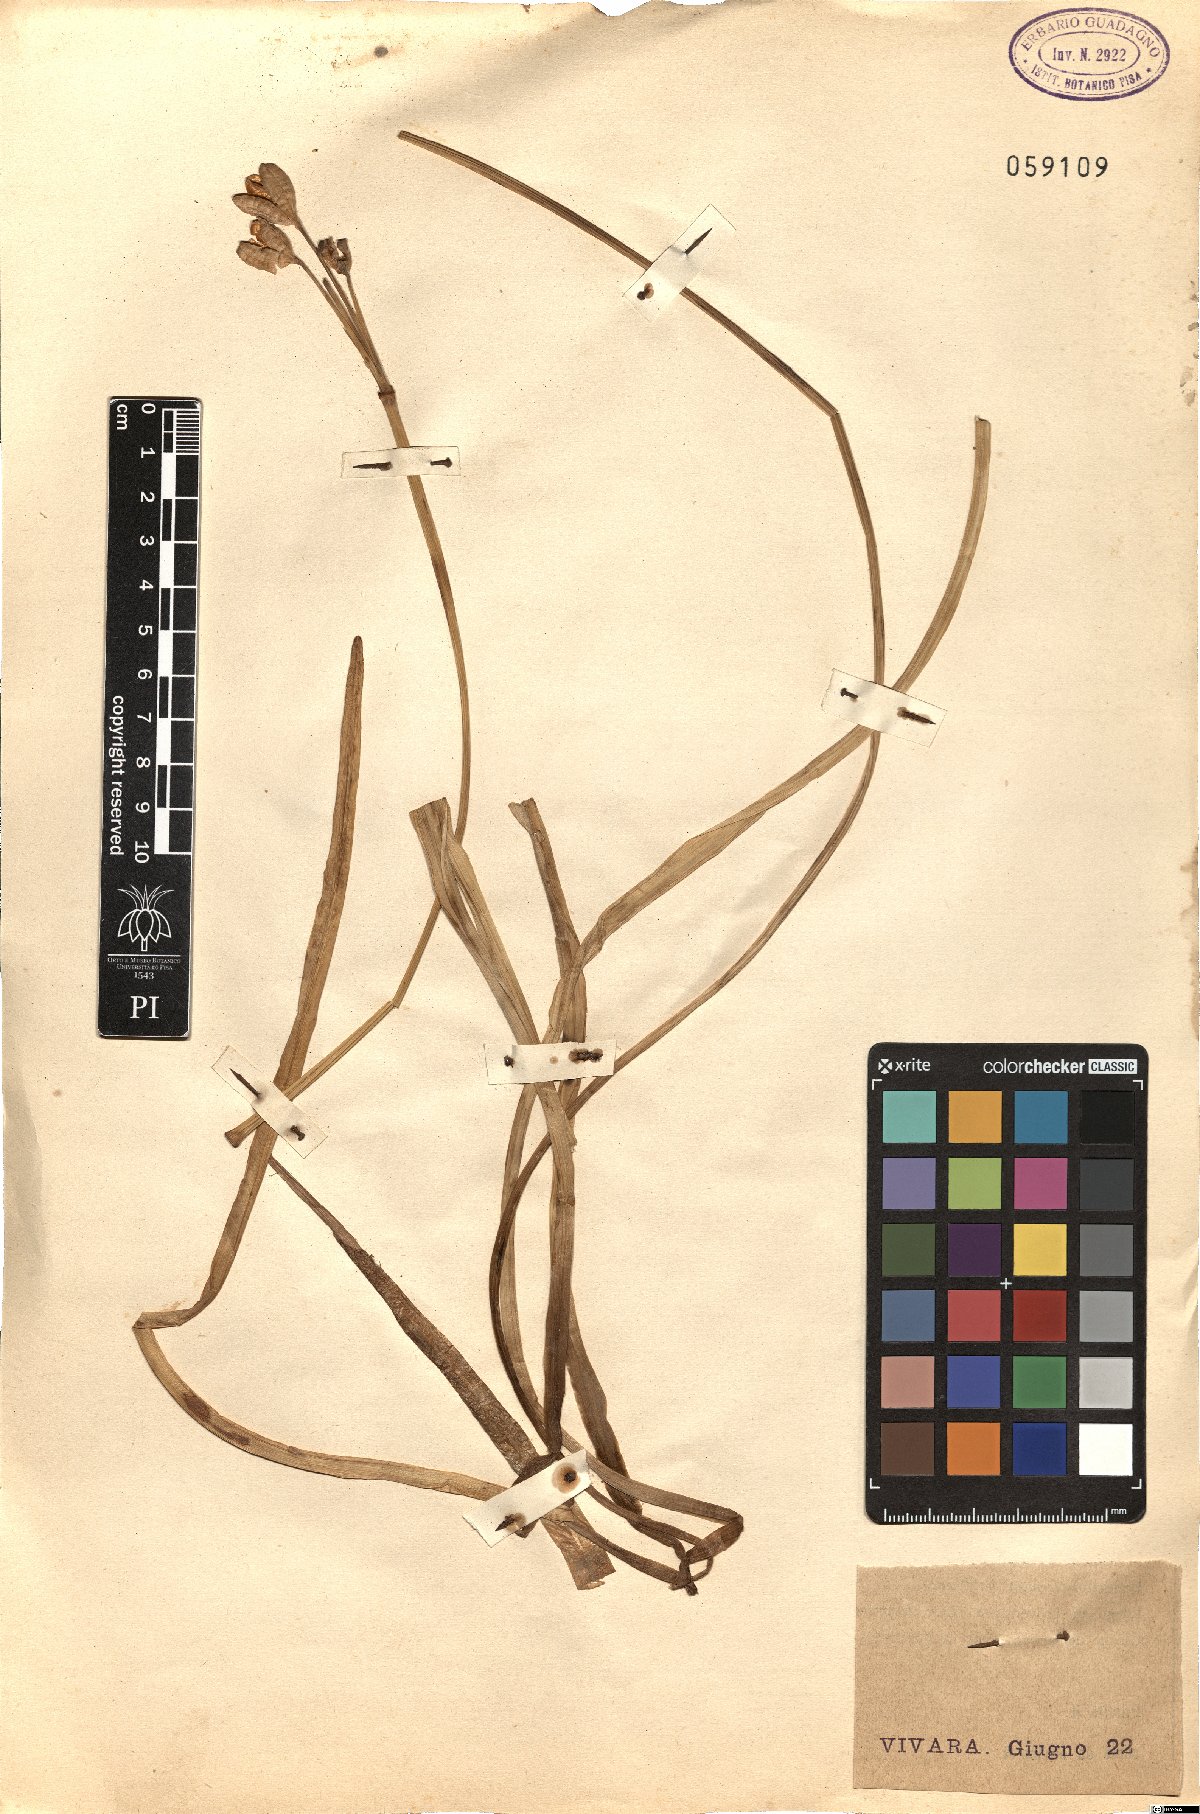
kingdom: Plantae
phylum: Tracheophyta
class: Liliopsida
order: Asparagales
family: Amaryllidaceae
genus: Narcissus
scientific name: Narcissus tazetta
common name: Bunch-flowered daffodil
